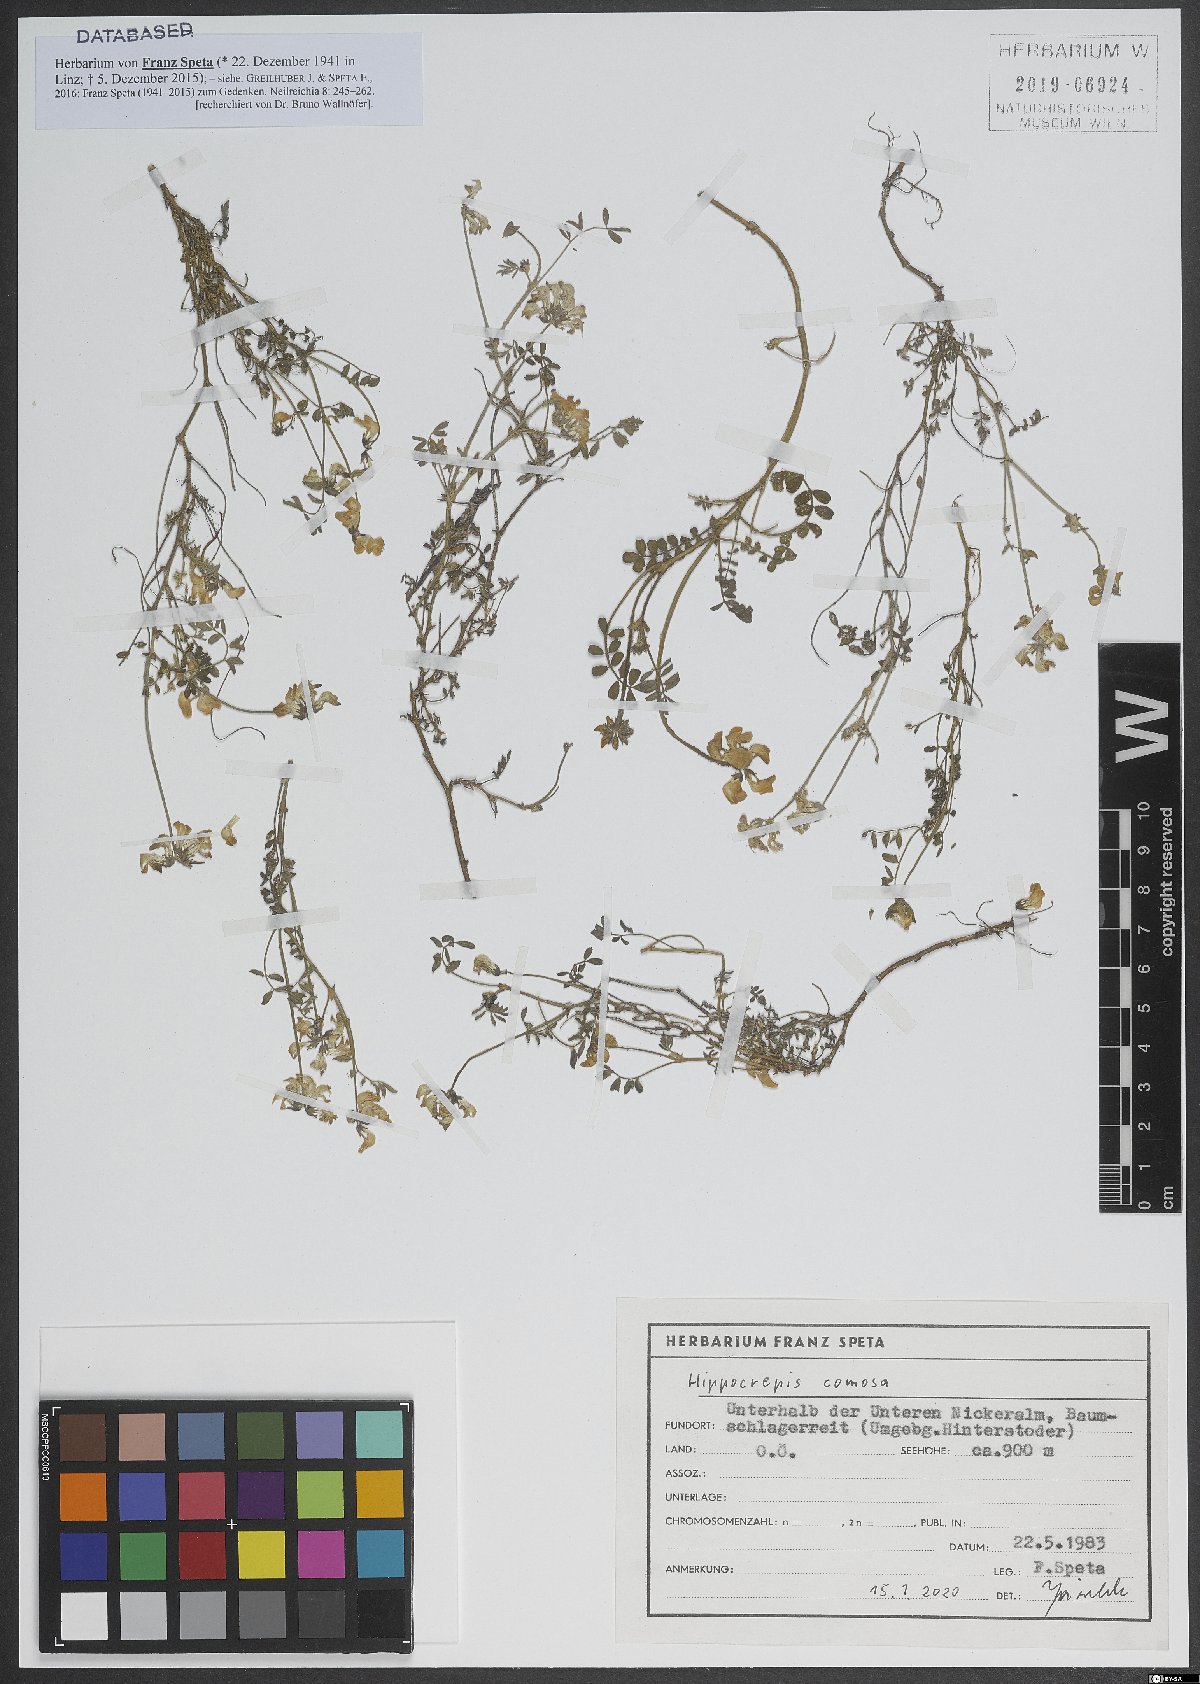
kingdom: Plantae
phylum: Tracheophyta
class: Magnoliopsida
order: Fabales
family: Fabaceae
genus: Hippocrepis
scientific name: Hippocrepis comosa
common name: Horseshoe vetch
